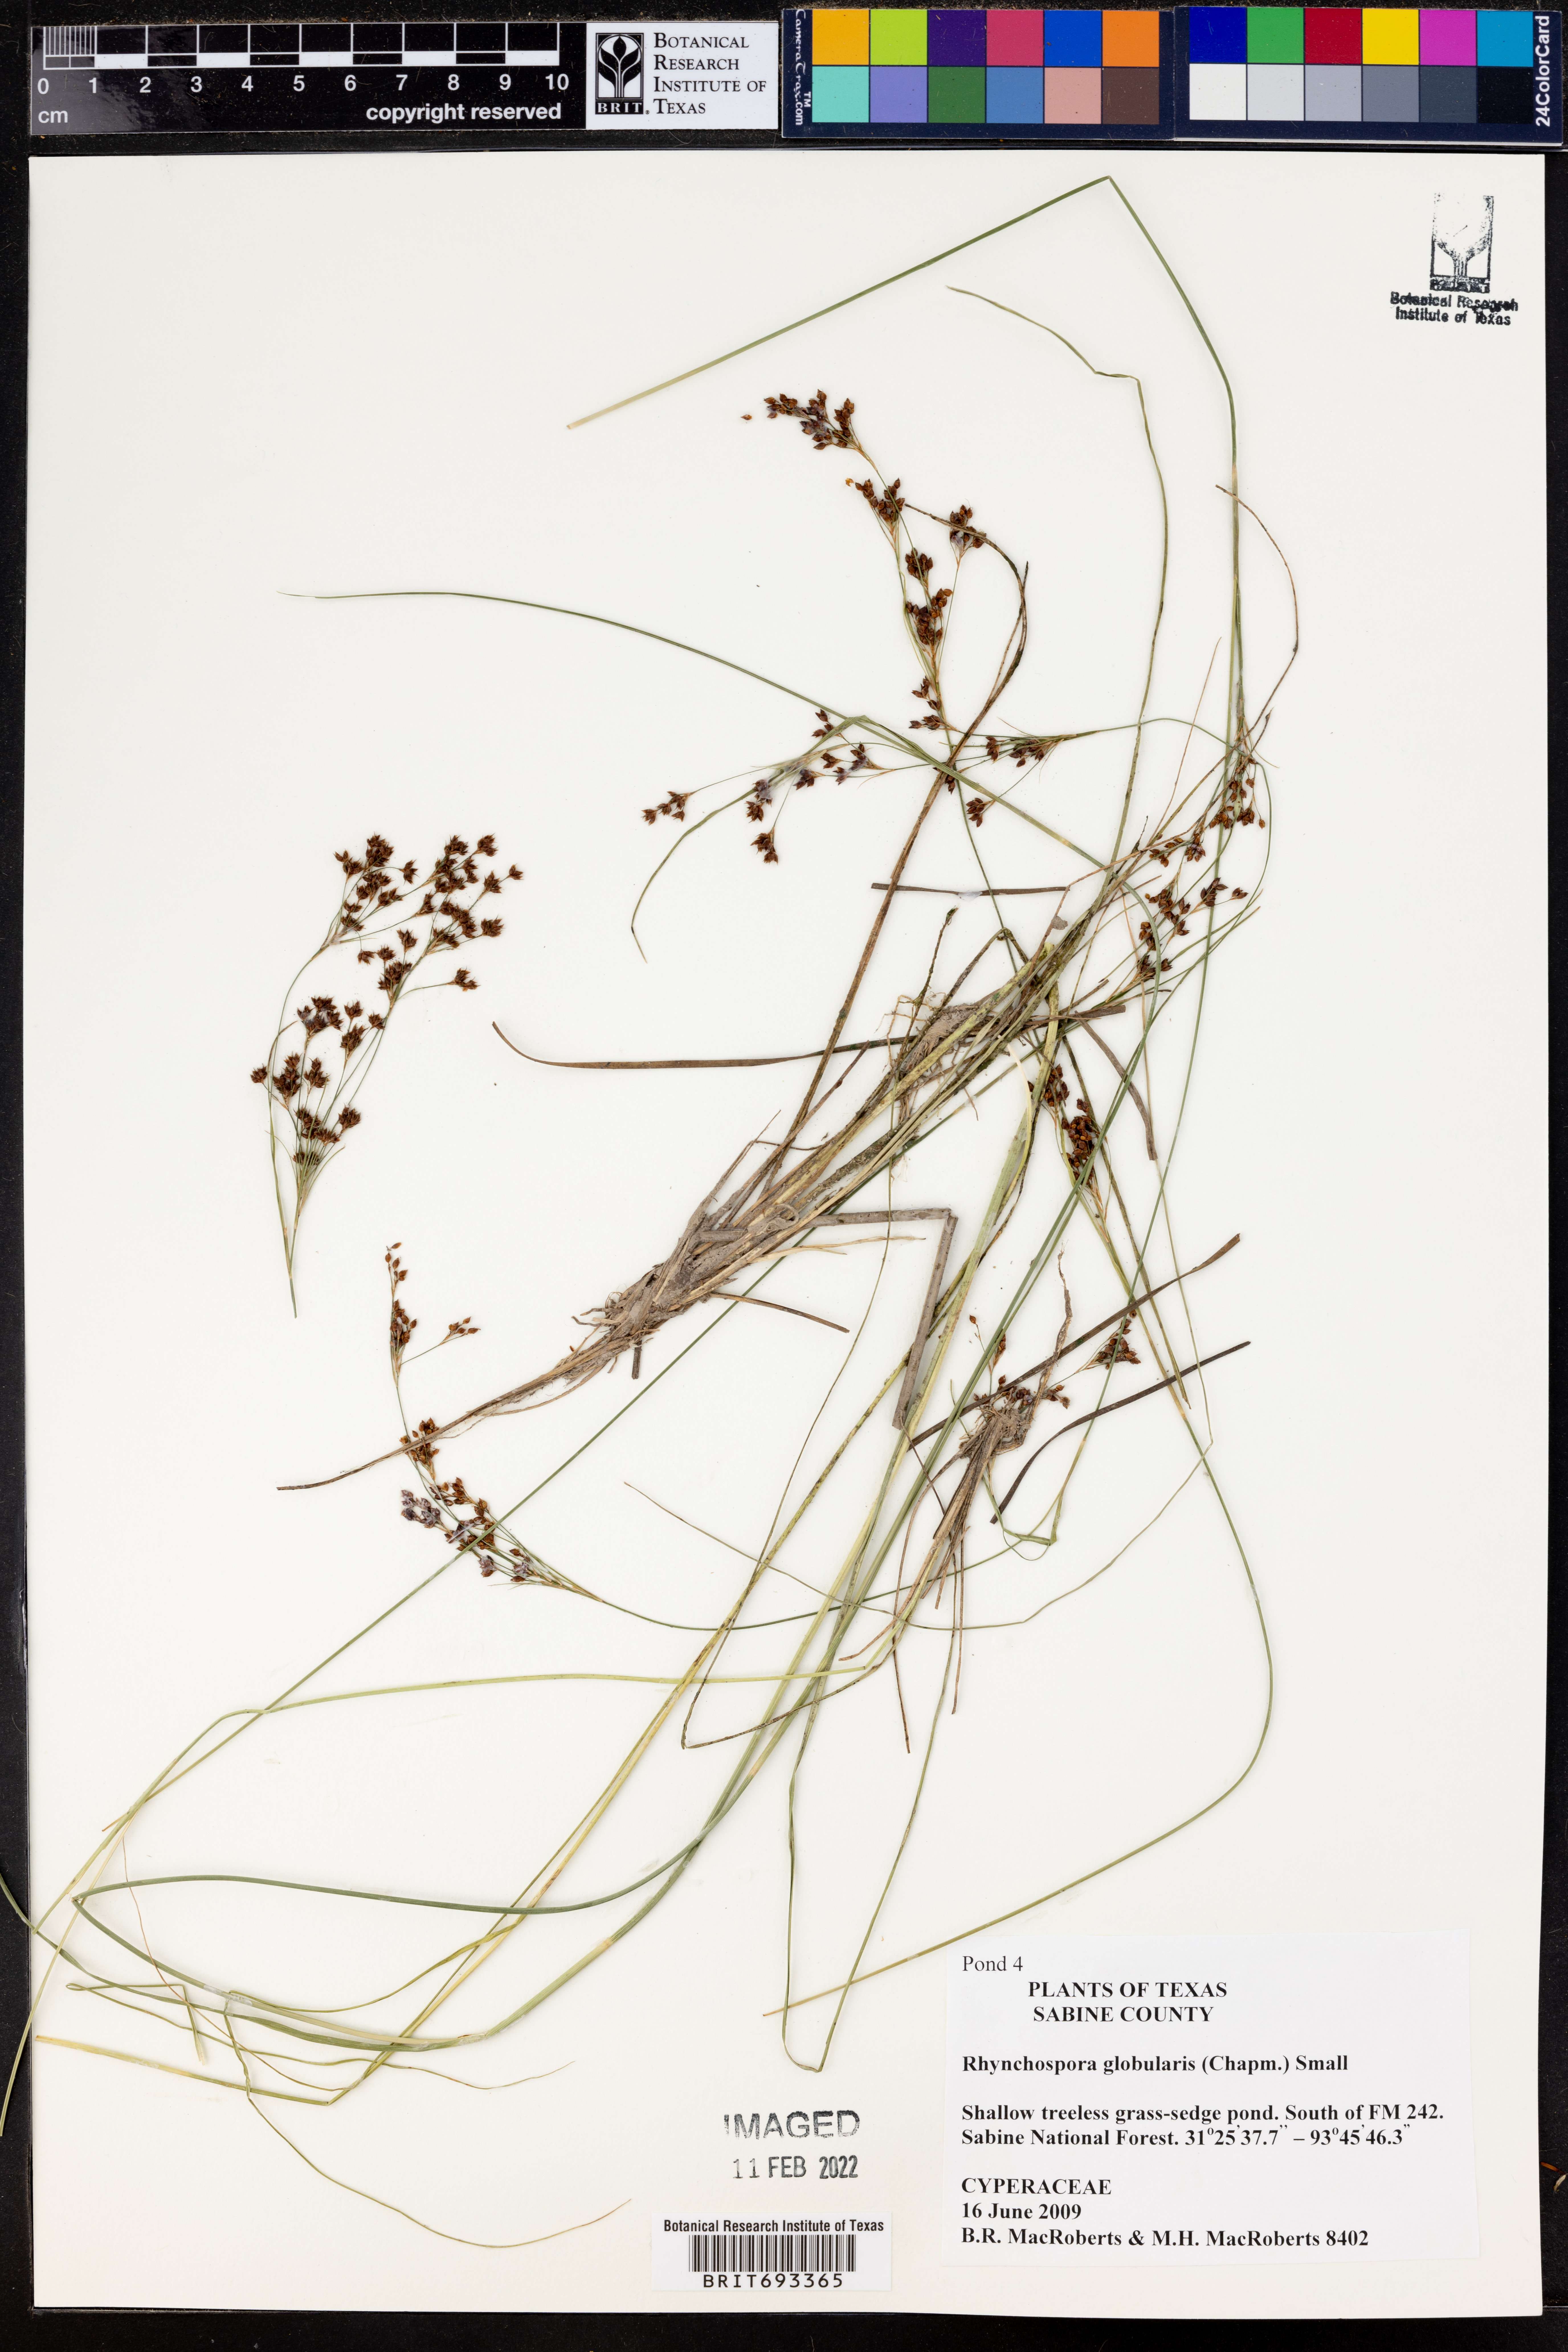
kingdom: Plantae
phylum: Tracheophyta
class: Liliopsida
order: Poales
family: Cyperaceae
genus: Rhynchospora
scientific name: Rhynchospora globularis
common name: Globe beaksedge
